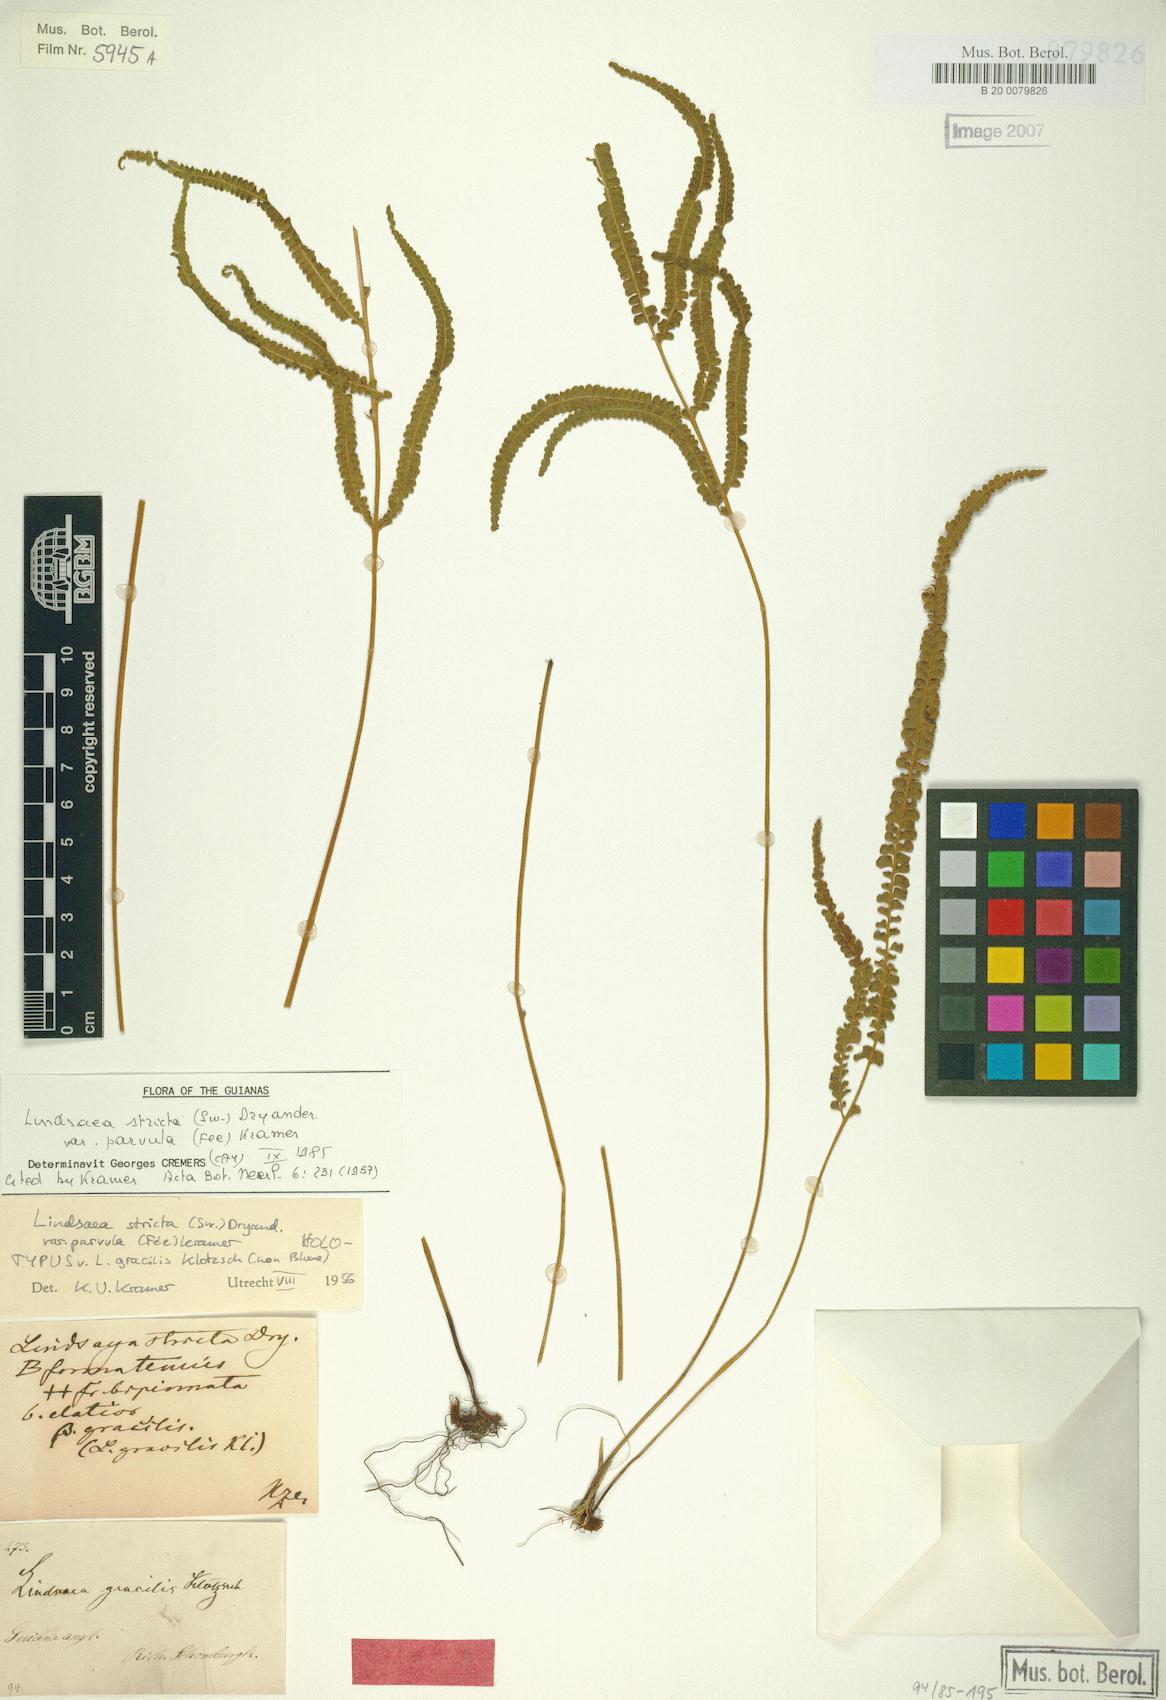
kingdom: Plantae
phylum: Tracheophyta
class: Polypodiopsida
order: Polypodiales
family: Lindsaeaceae
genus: Lindsaea
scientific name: Lindsaea stricta
